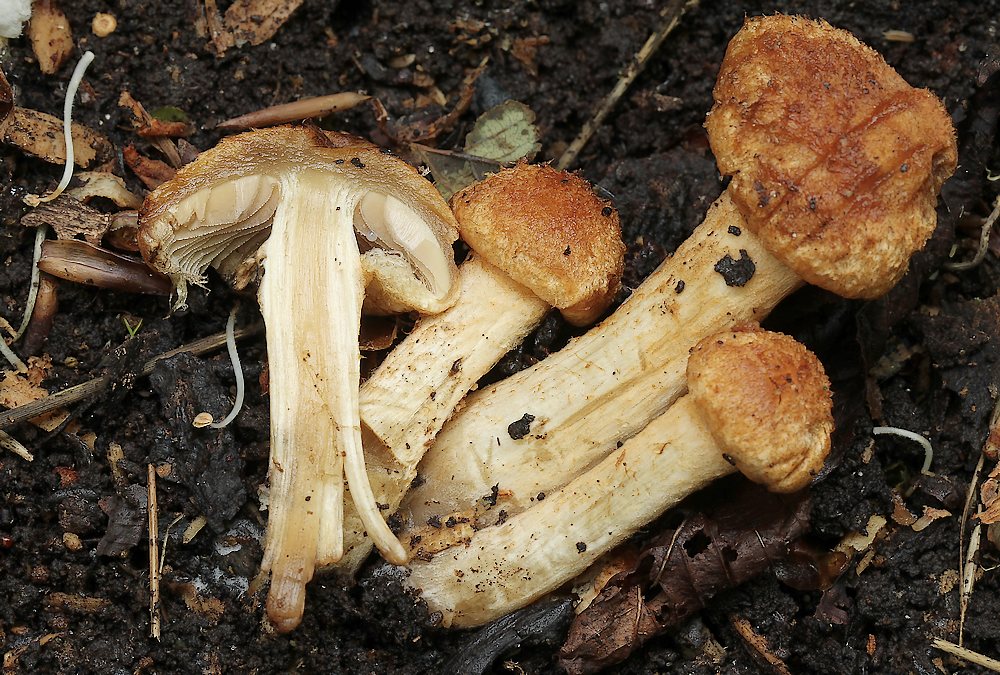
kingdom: Fungi
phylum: Basidiomycota
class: Agaricomycetes
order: Agaricales
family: Psathyrellaceae
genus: Lacrymaria
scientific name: Lacrymaria
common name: mørkhat
